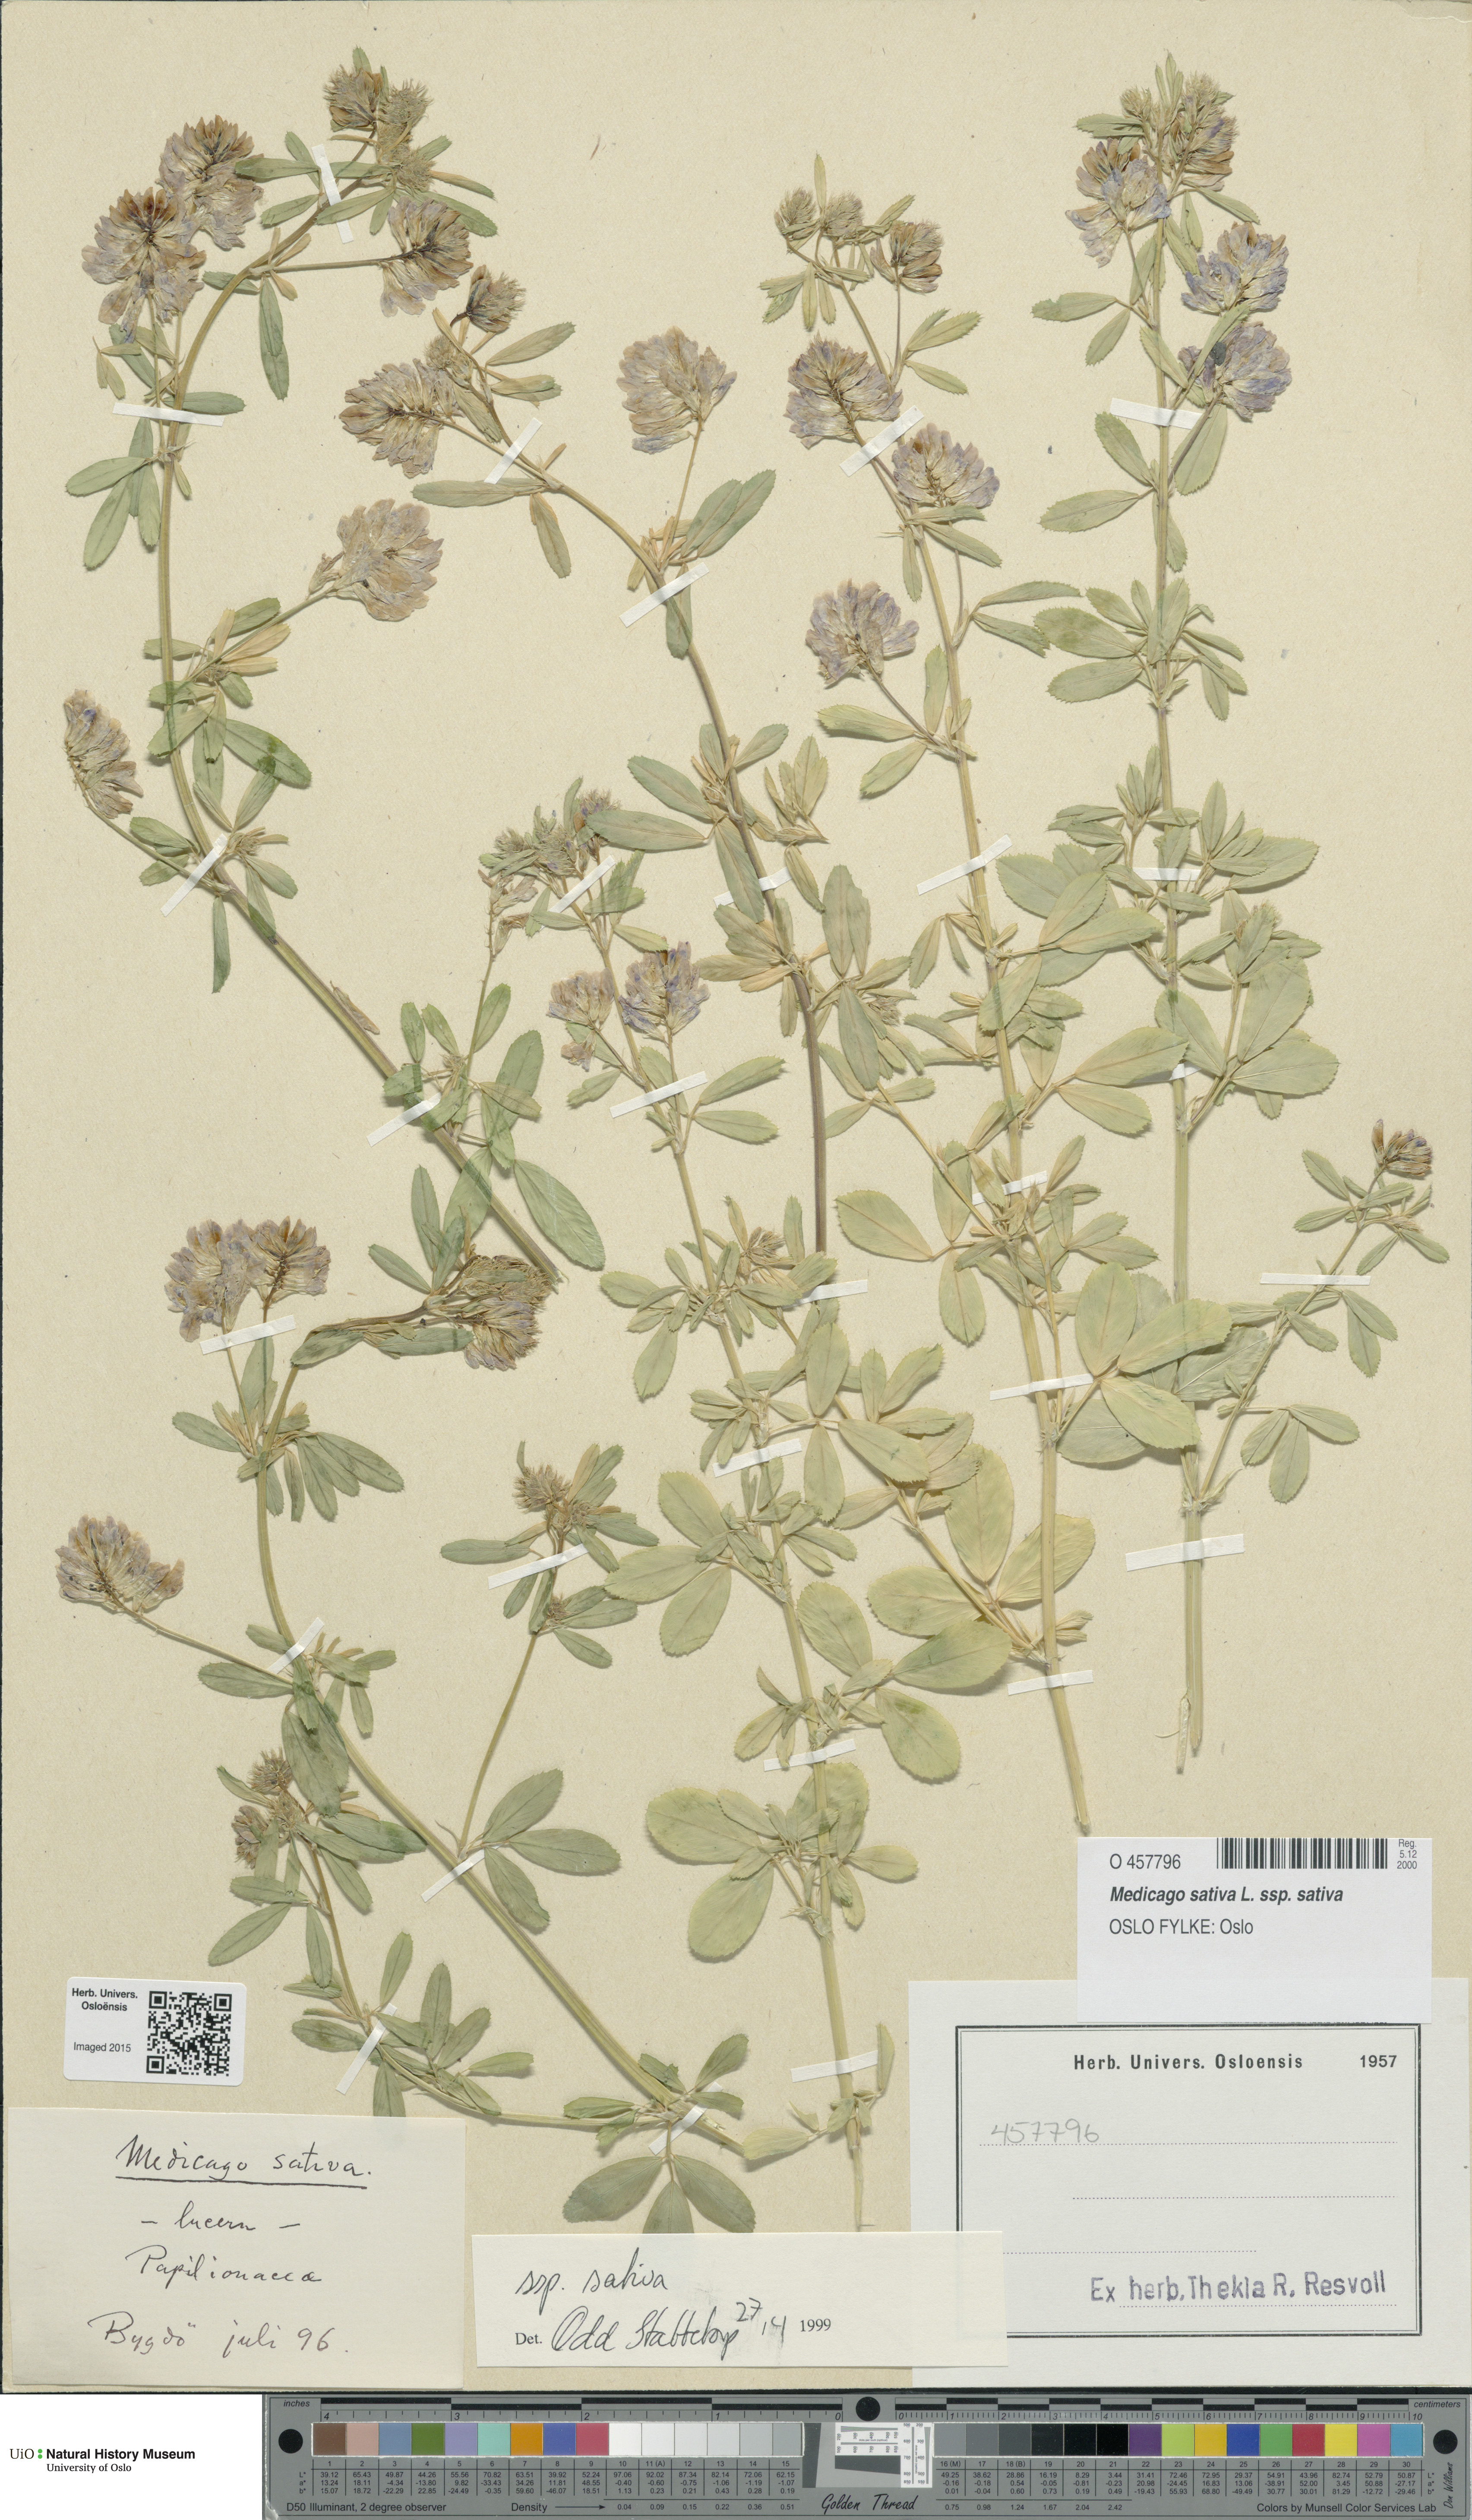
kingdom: Plantae
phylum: Tracheophyta
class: Magnoliopsida
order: Fabales
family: Fabaceae
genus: Medicago
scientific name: Medicago sativa
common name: Alfalfa
